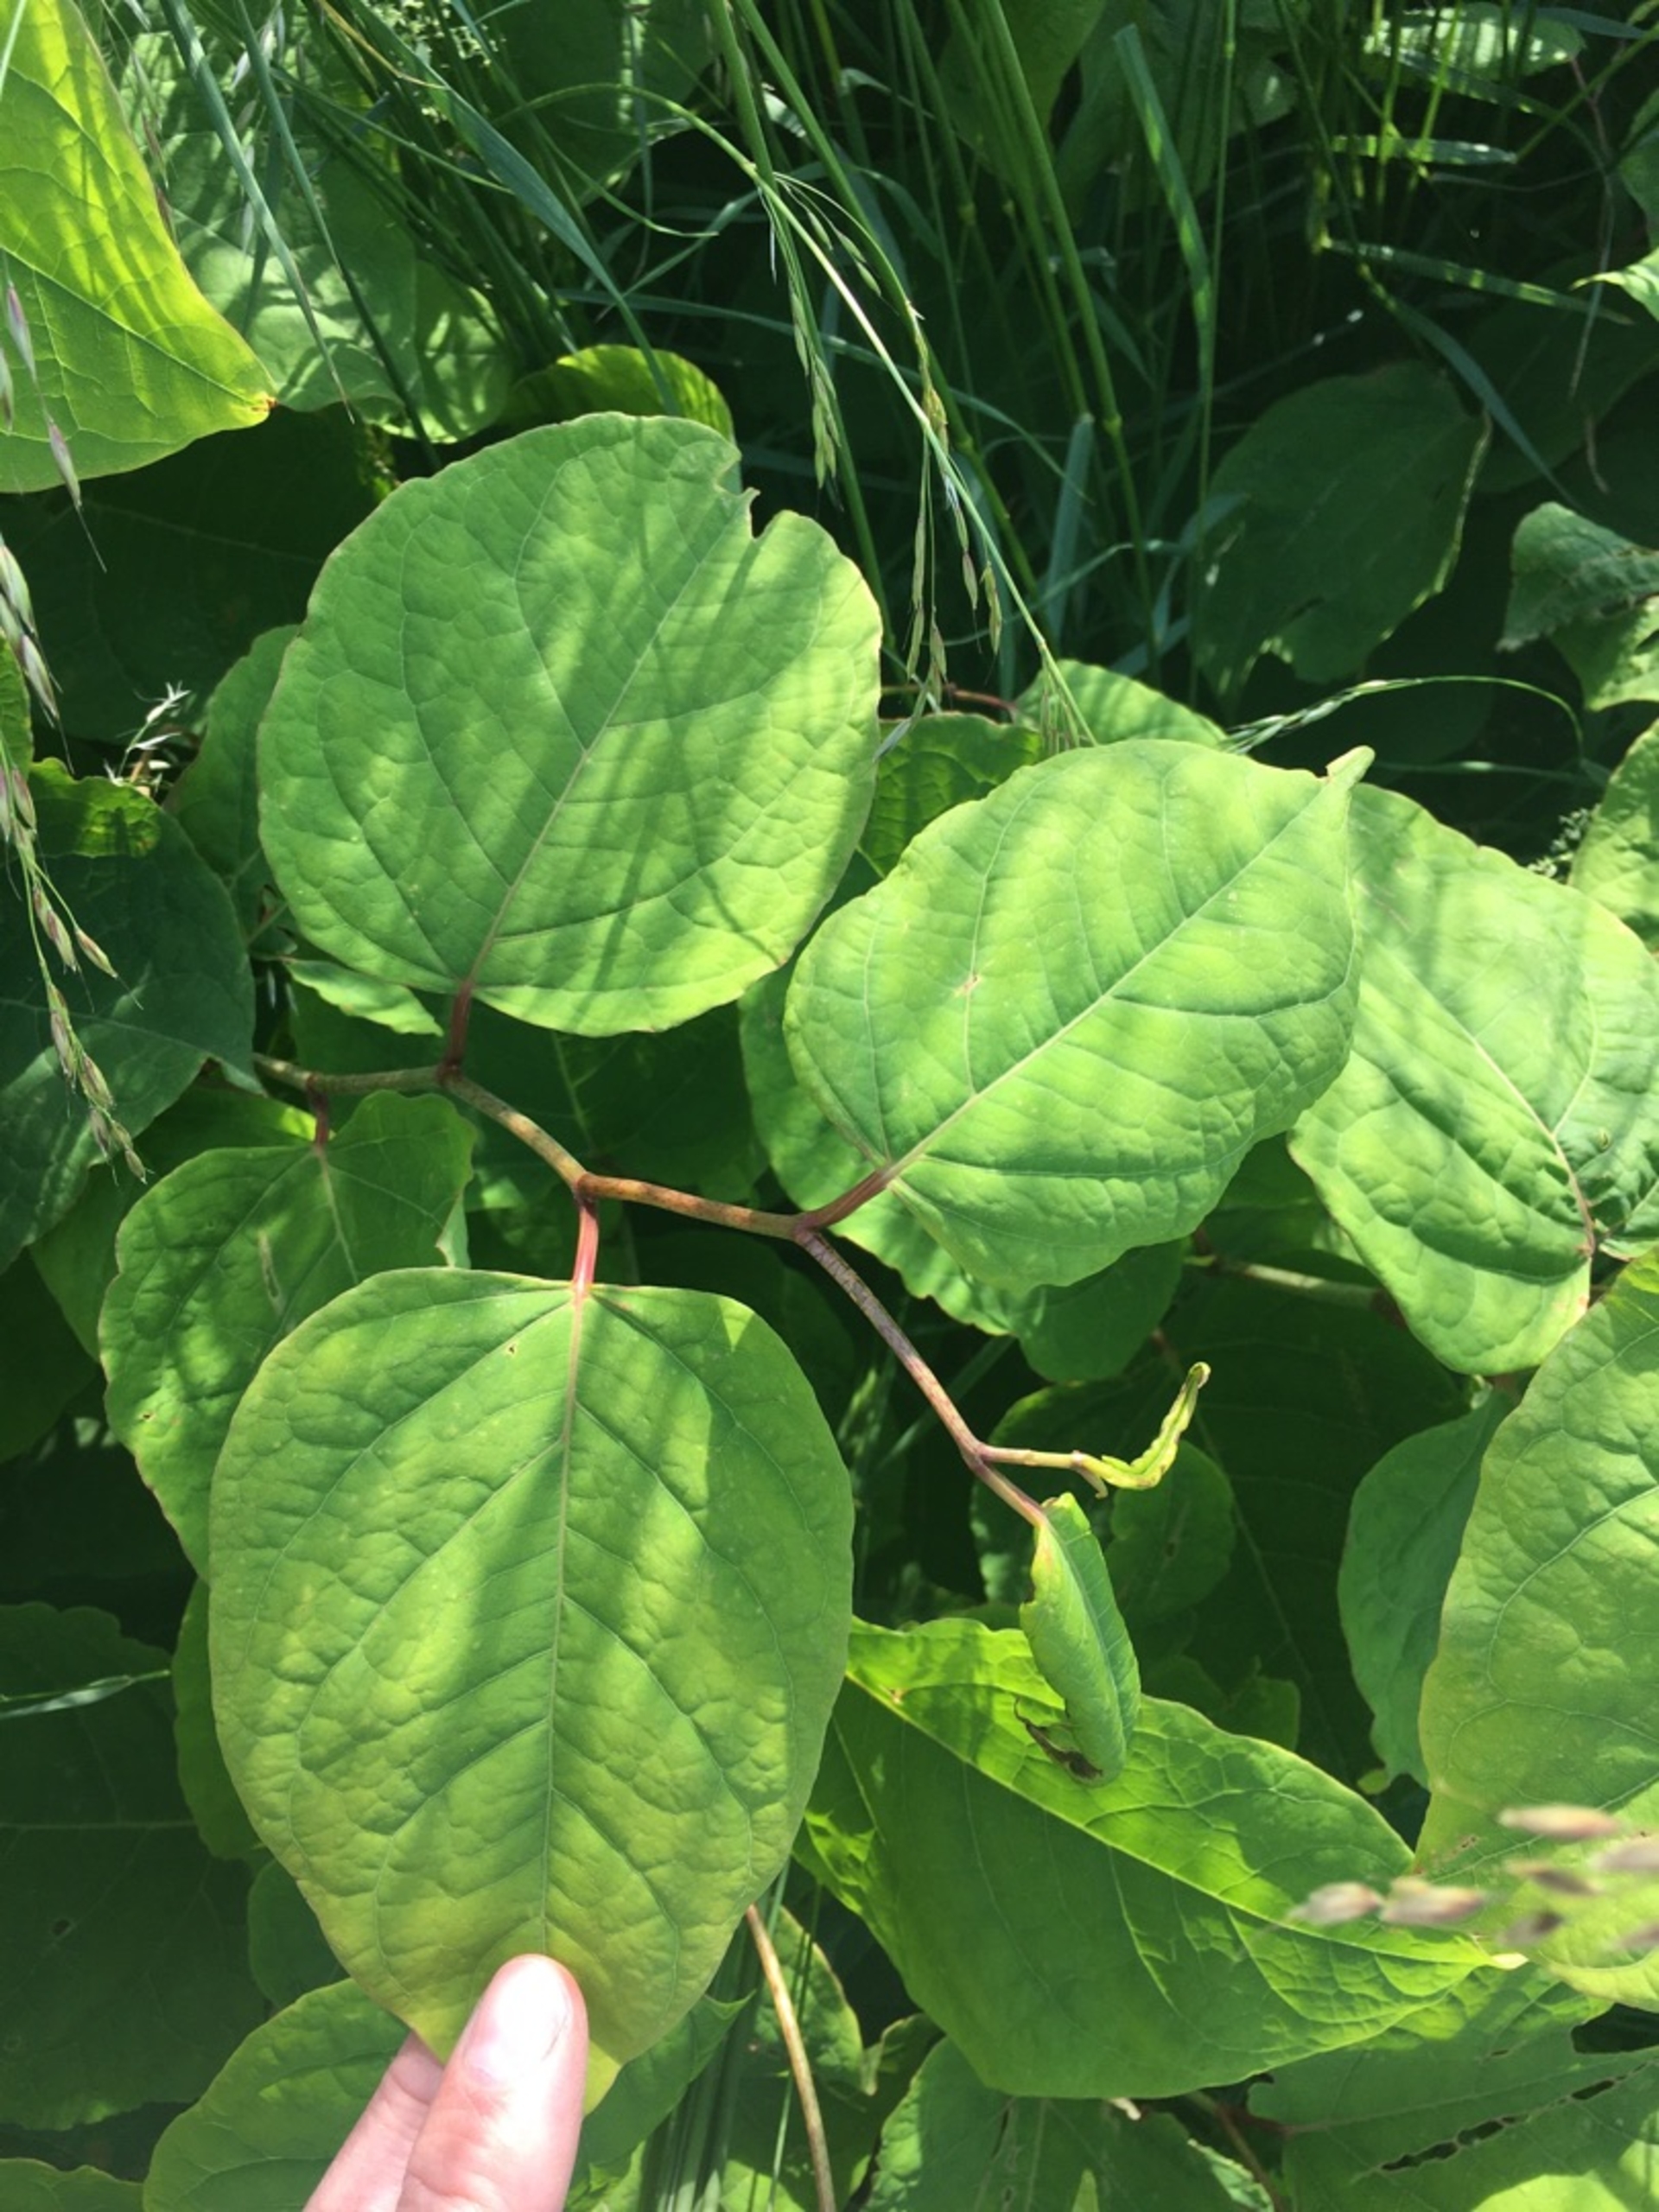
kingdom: Plantae
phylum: Tracheophyta
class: Magnoliopsida
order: Caryophyllales
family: Polygonaceae
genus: Reynoutria
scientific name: Reynoutria bohemica
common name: Hybrid-pileurt
